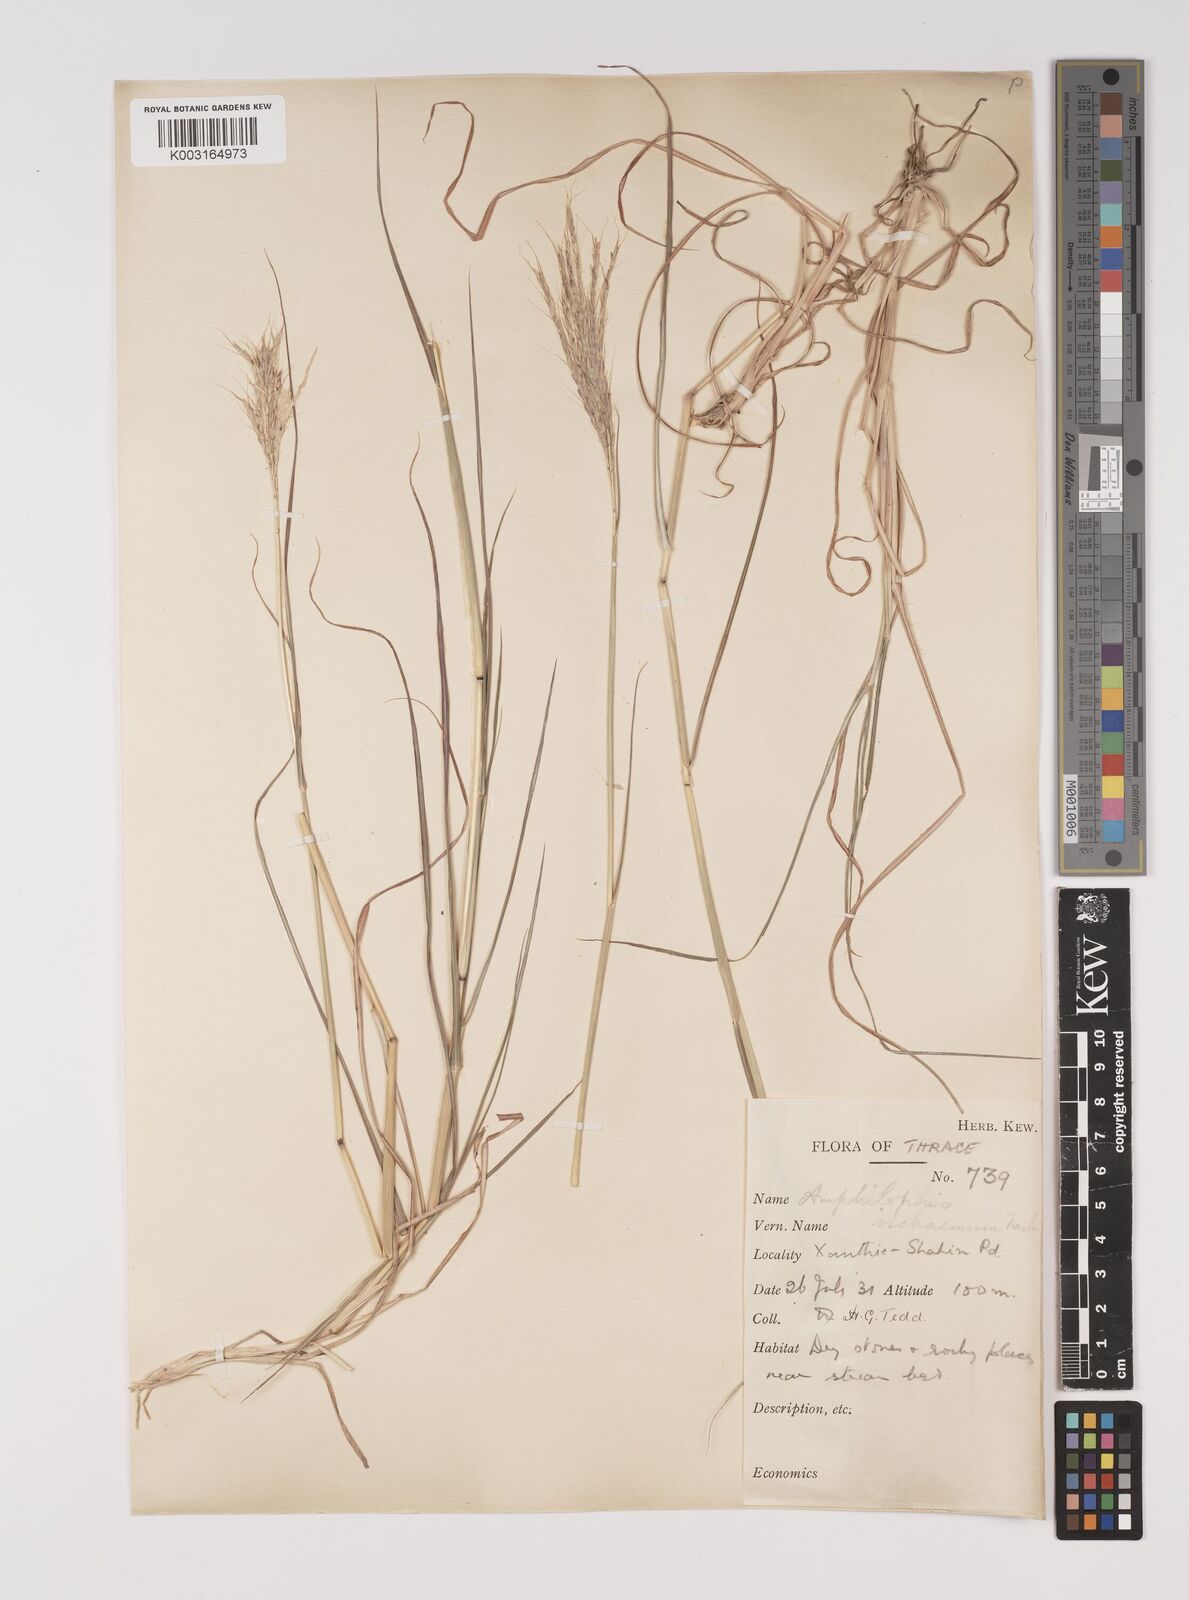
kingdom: Plantae
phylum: Tracheophyta
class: Liliopsida
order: Poales
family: Poaceae
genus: Bothriochloa
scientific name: Bothriochloa ischaemum
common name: Yellow bluestem
